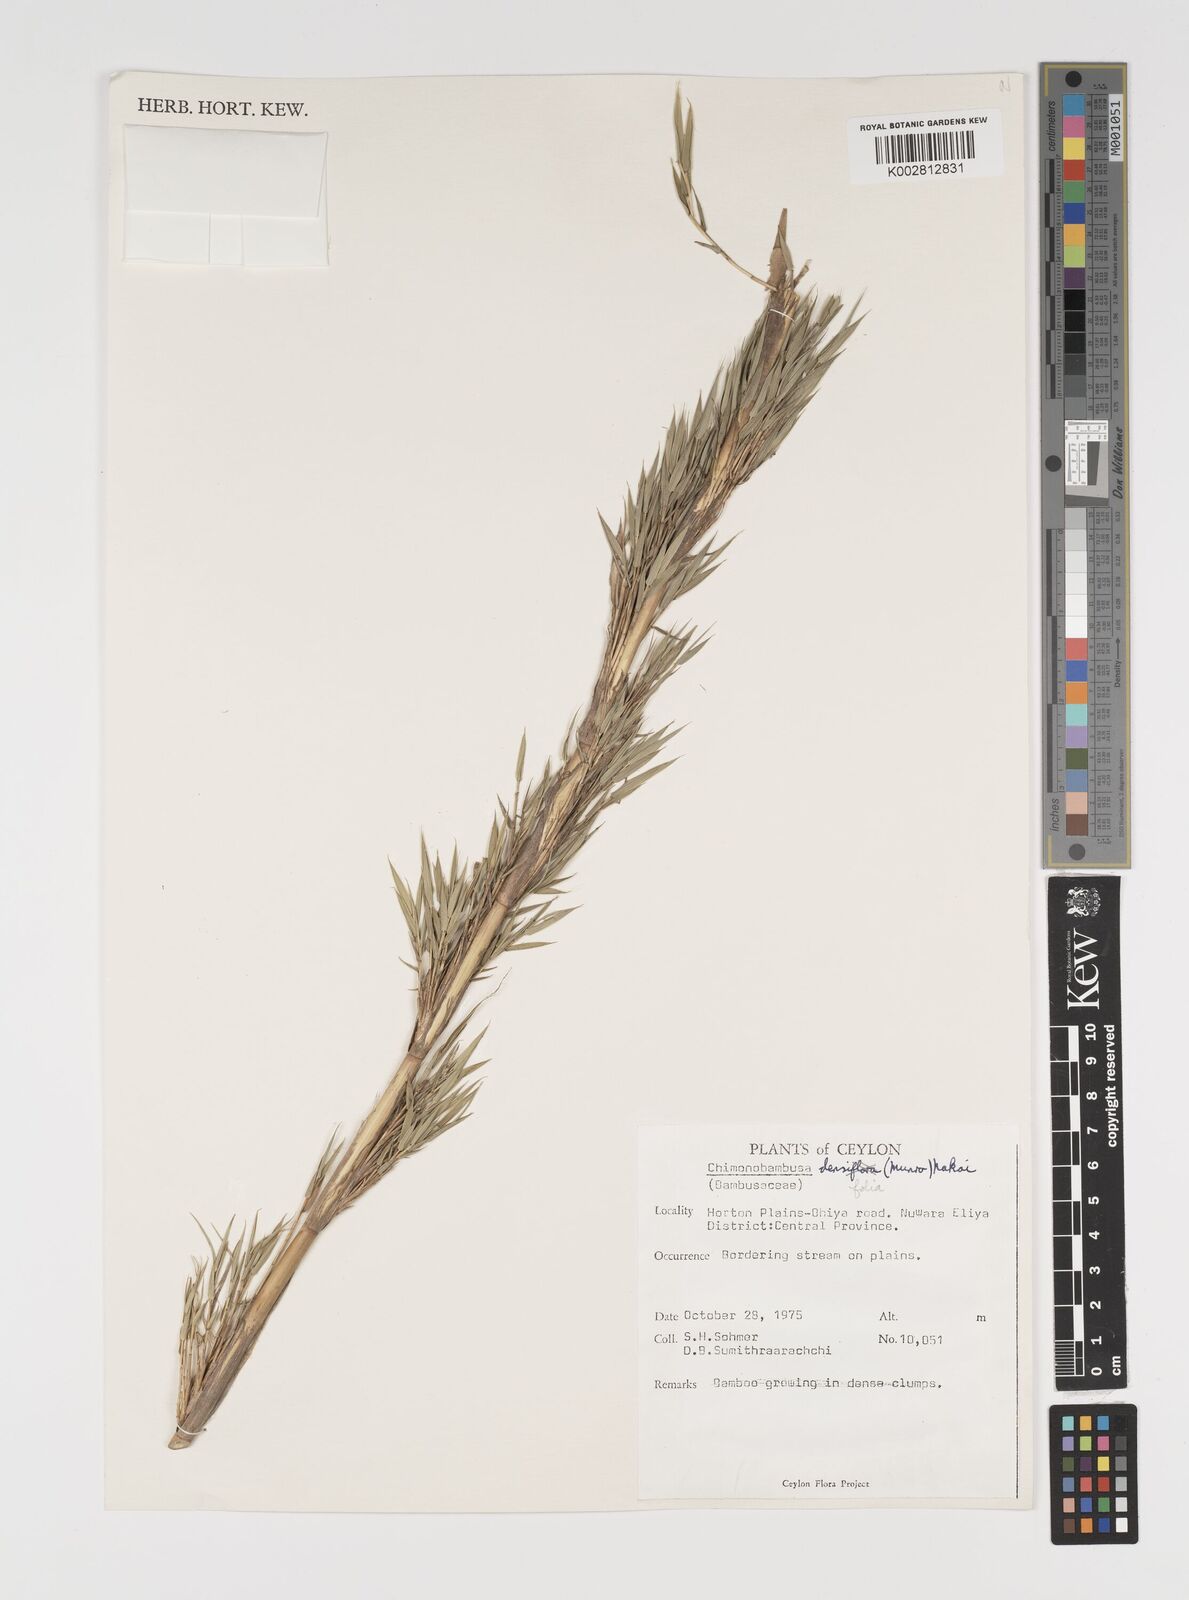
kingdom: Plantae
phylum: Tracheophyta
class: Liliopsida
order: Poales
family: Poaceae
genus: Brachystachyum
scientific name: Brachystachyum densiflorum
